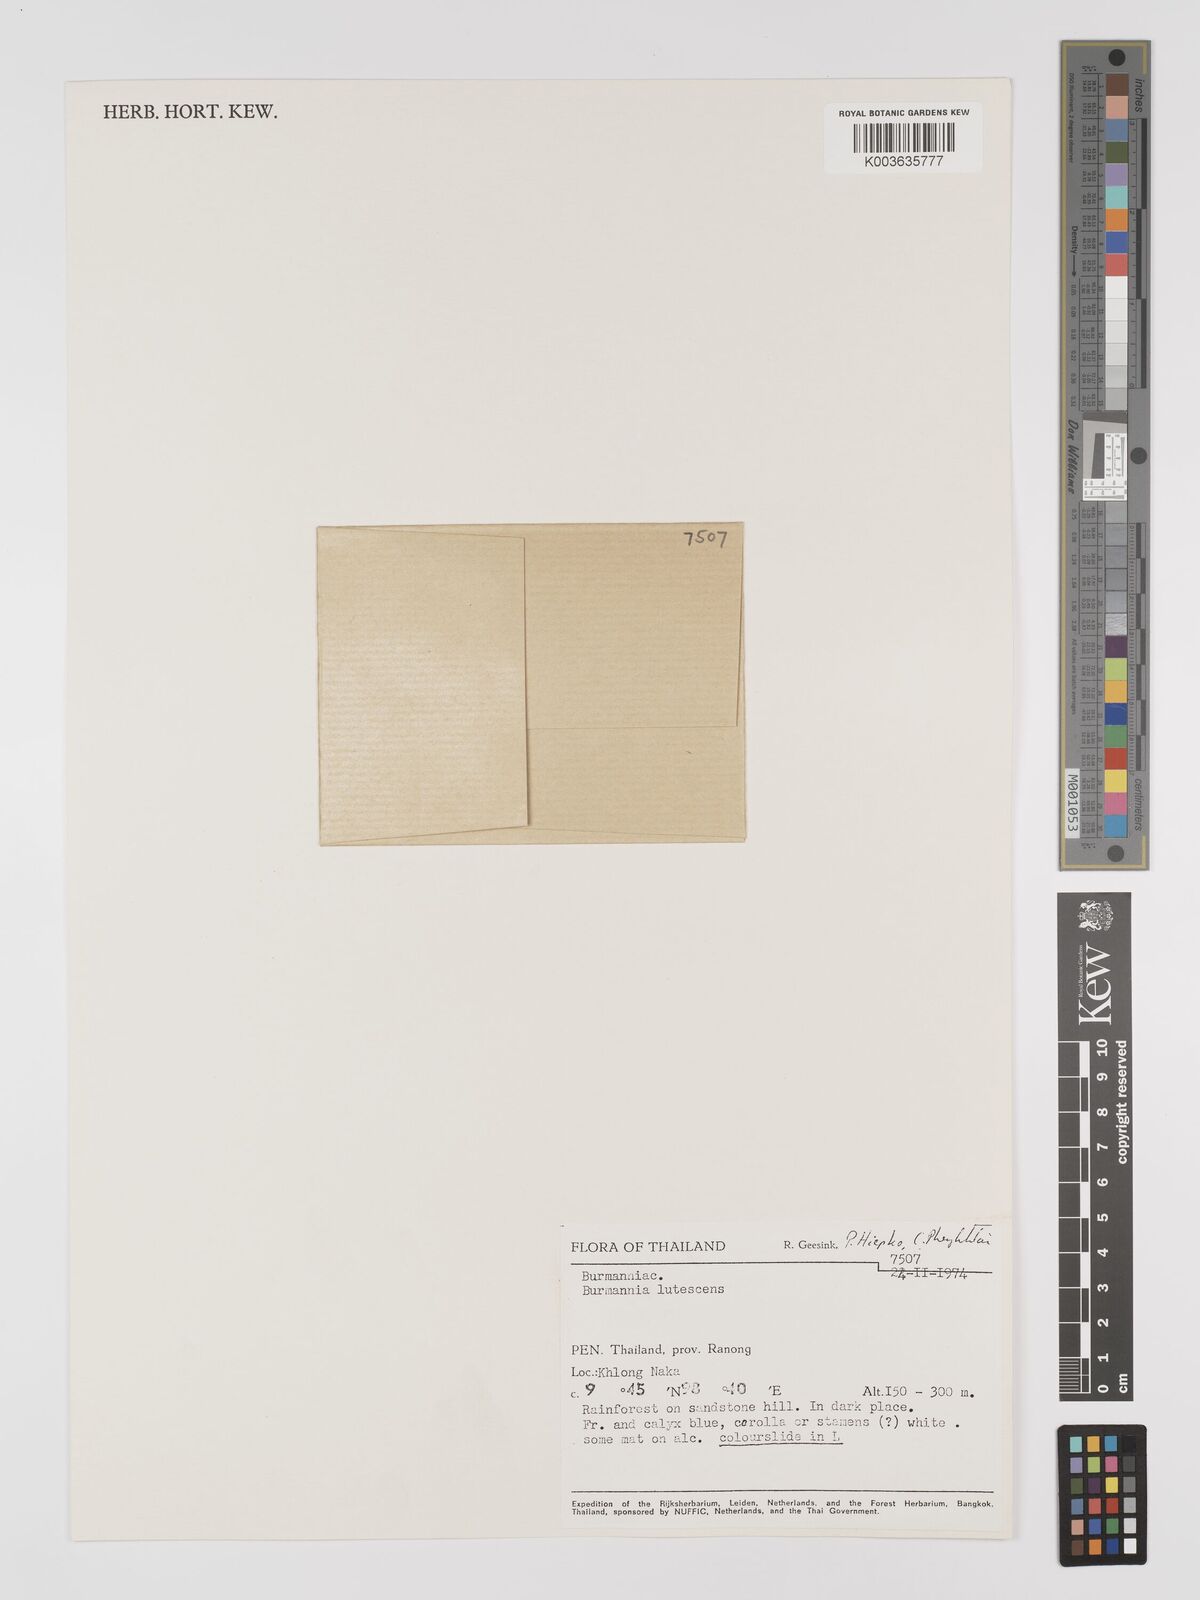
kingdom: Plantae
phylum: Tracheophyta
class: Liliopsida
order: Dioscoreales
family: Burmanniaceae
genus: Burmannia
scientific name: Burmannia lutescens
